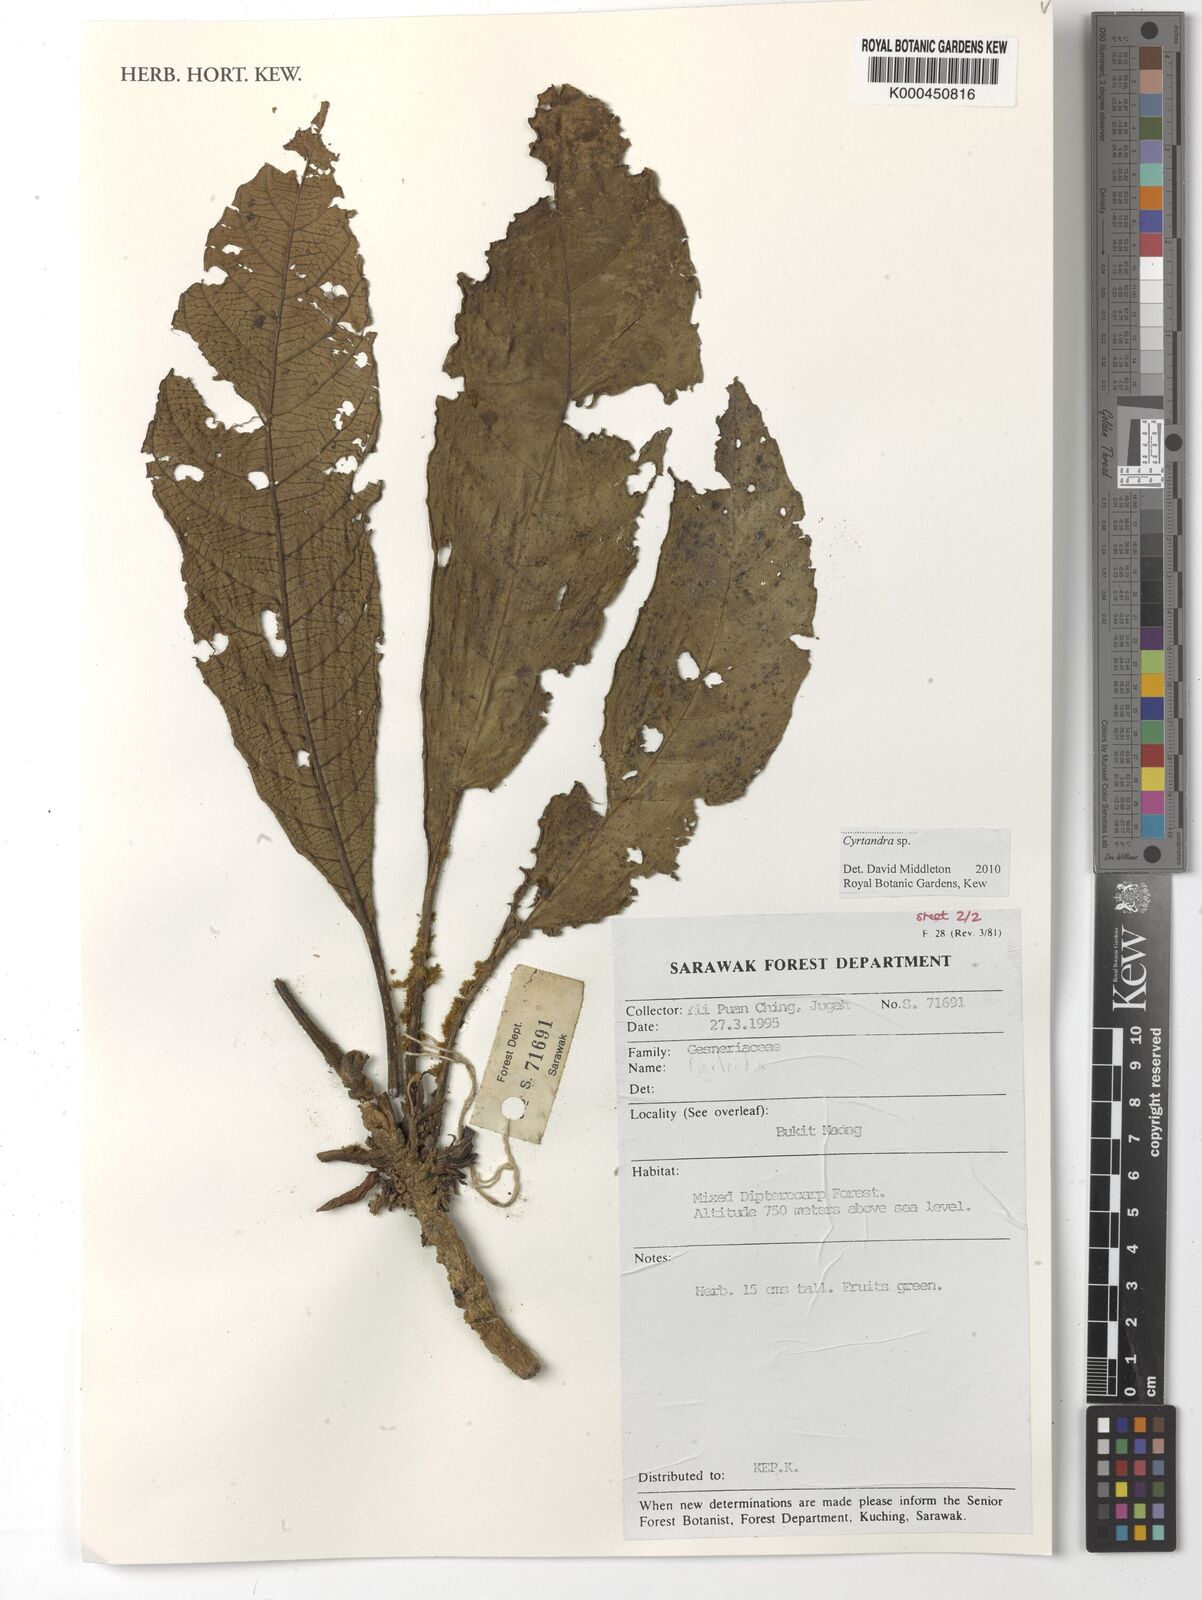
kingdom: Plantae
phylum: Tracheophyta
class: Magnoliopsida
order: Lamiales
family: Gesneriaceae
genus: Cyrtandra
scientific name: Cyrtandra
